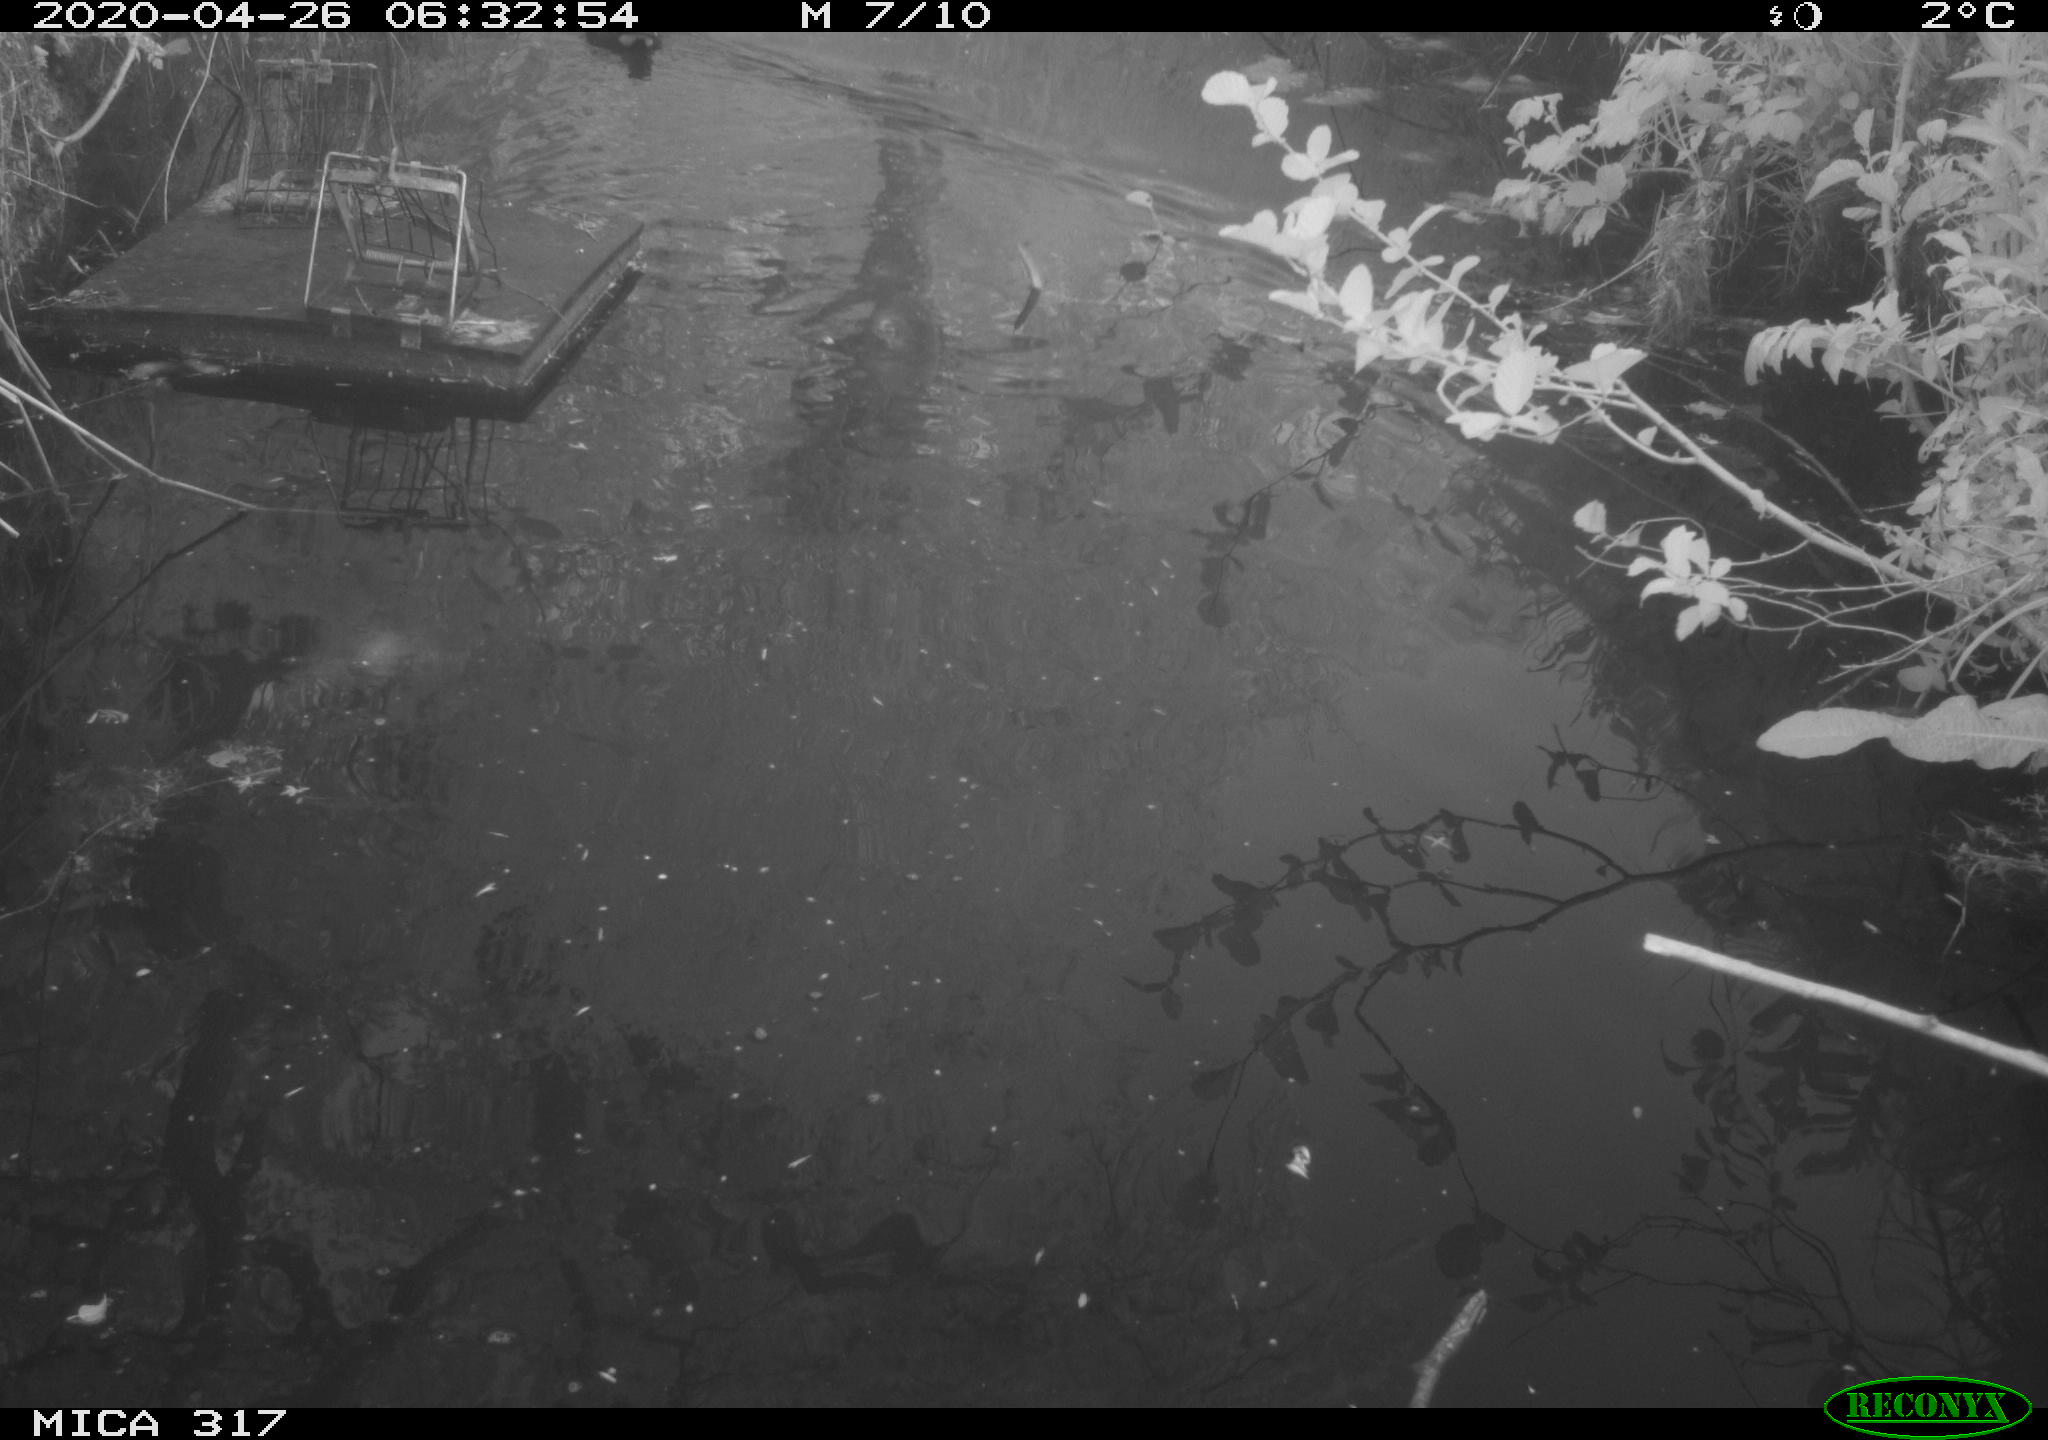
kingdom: Animalia
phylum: Chordata
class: Aves
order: Gruiformes
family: Rallidae
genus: Gallinula
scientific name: Gallinula chloropus
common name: Common moorhen
